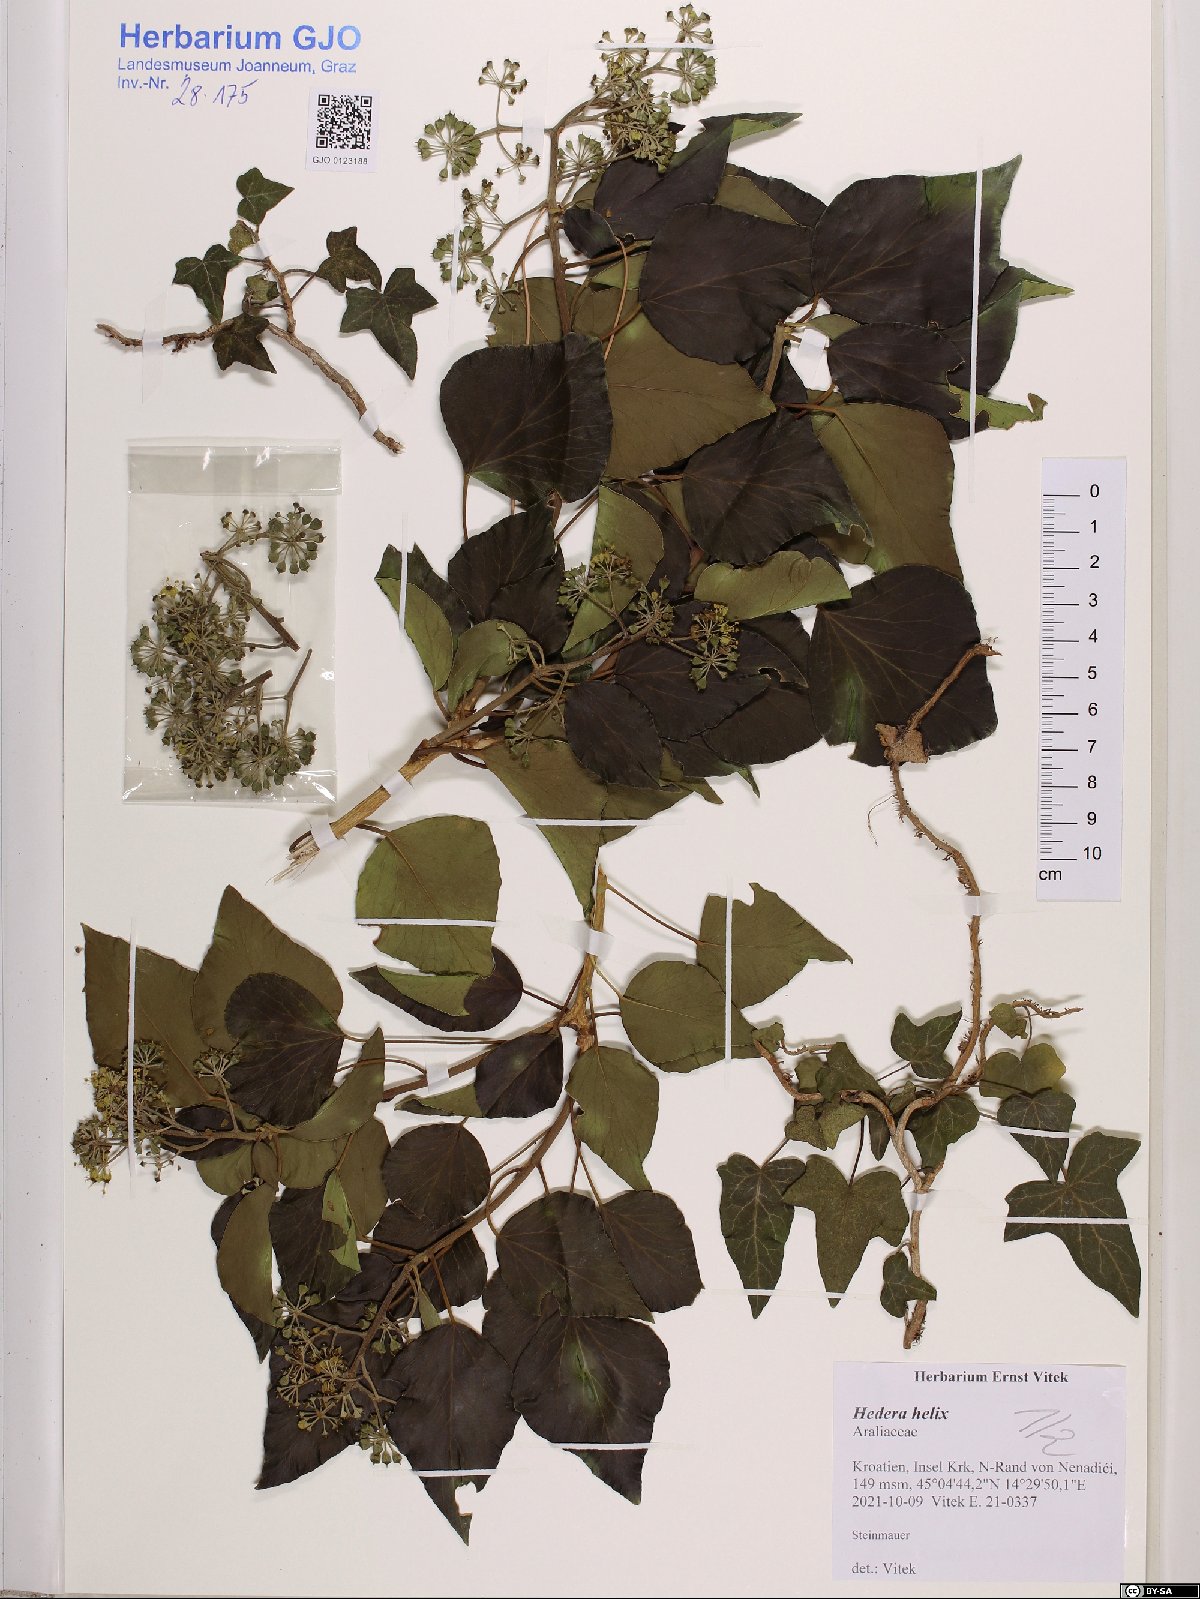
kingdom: Plantae
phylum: Tracheophyta
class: Magnoliopsida
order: Apiales
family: Araliaceae
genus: Hedera
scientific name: Hedera helix
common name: Ivy
